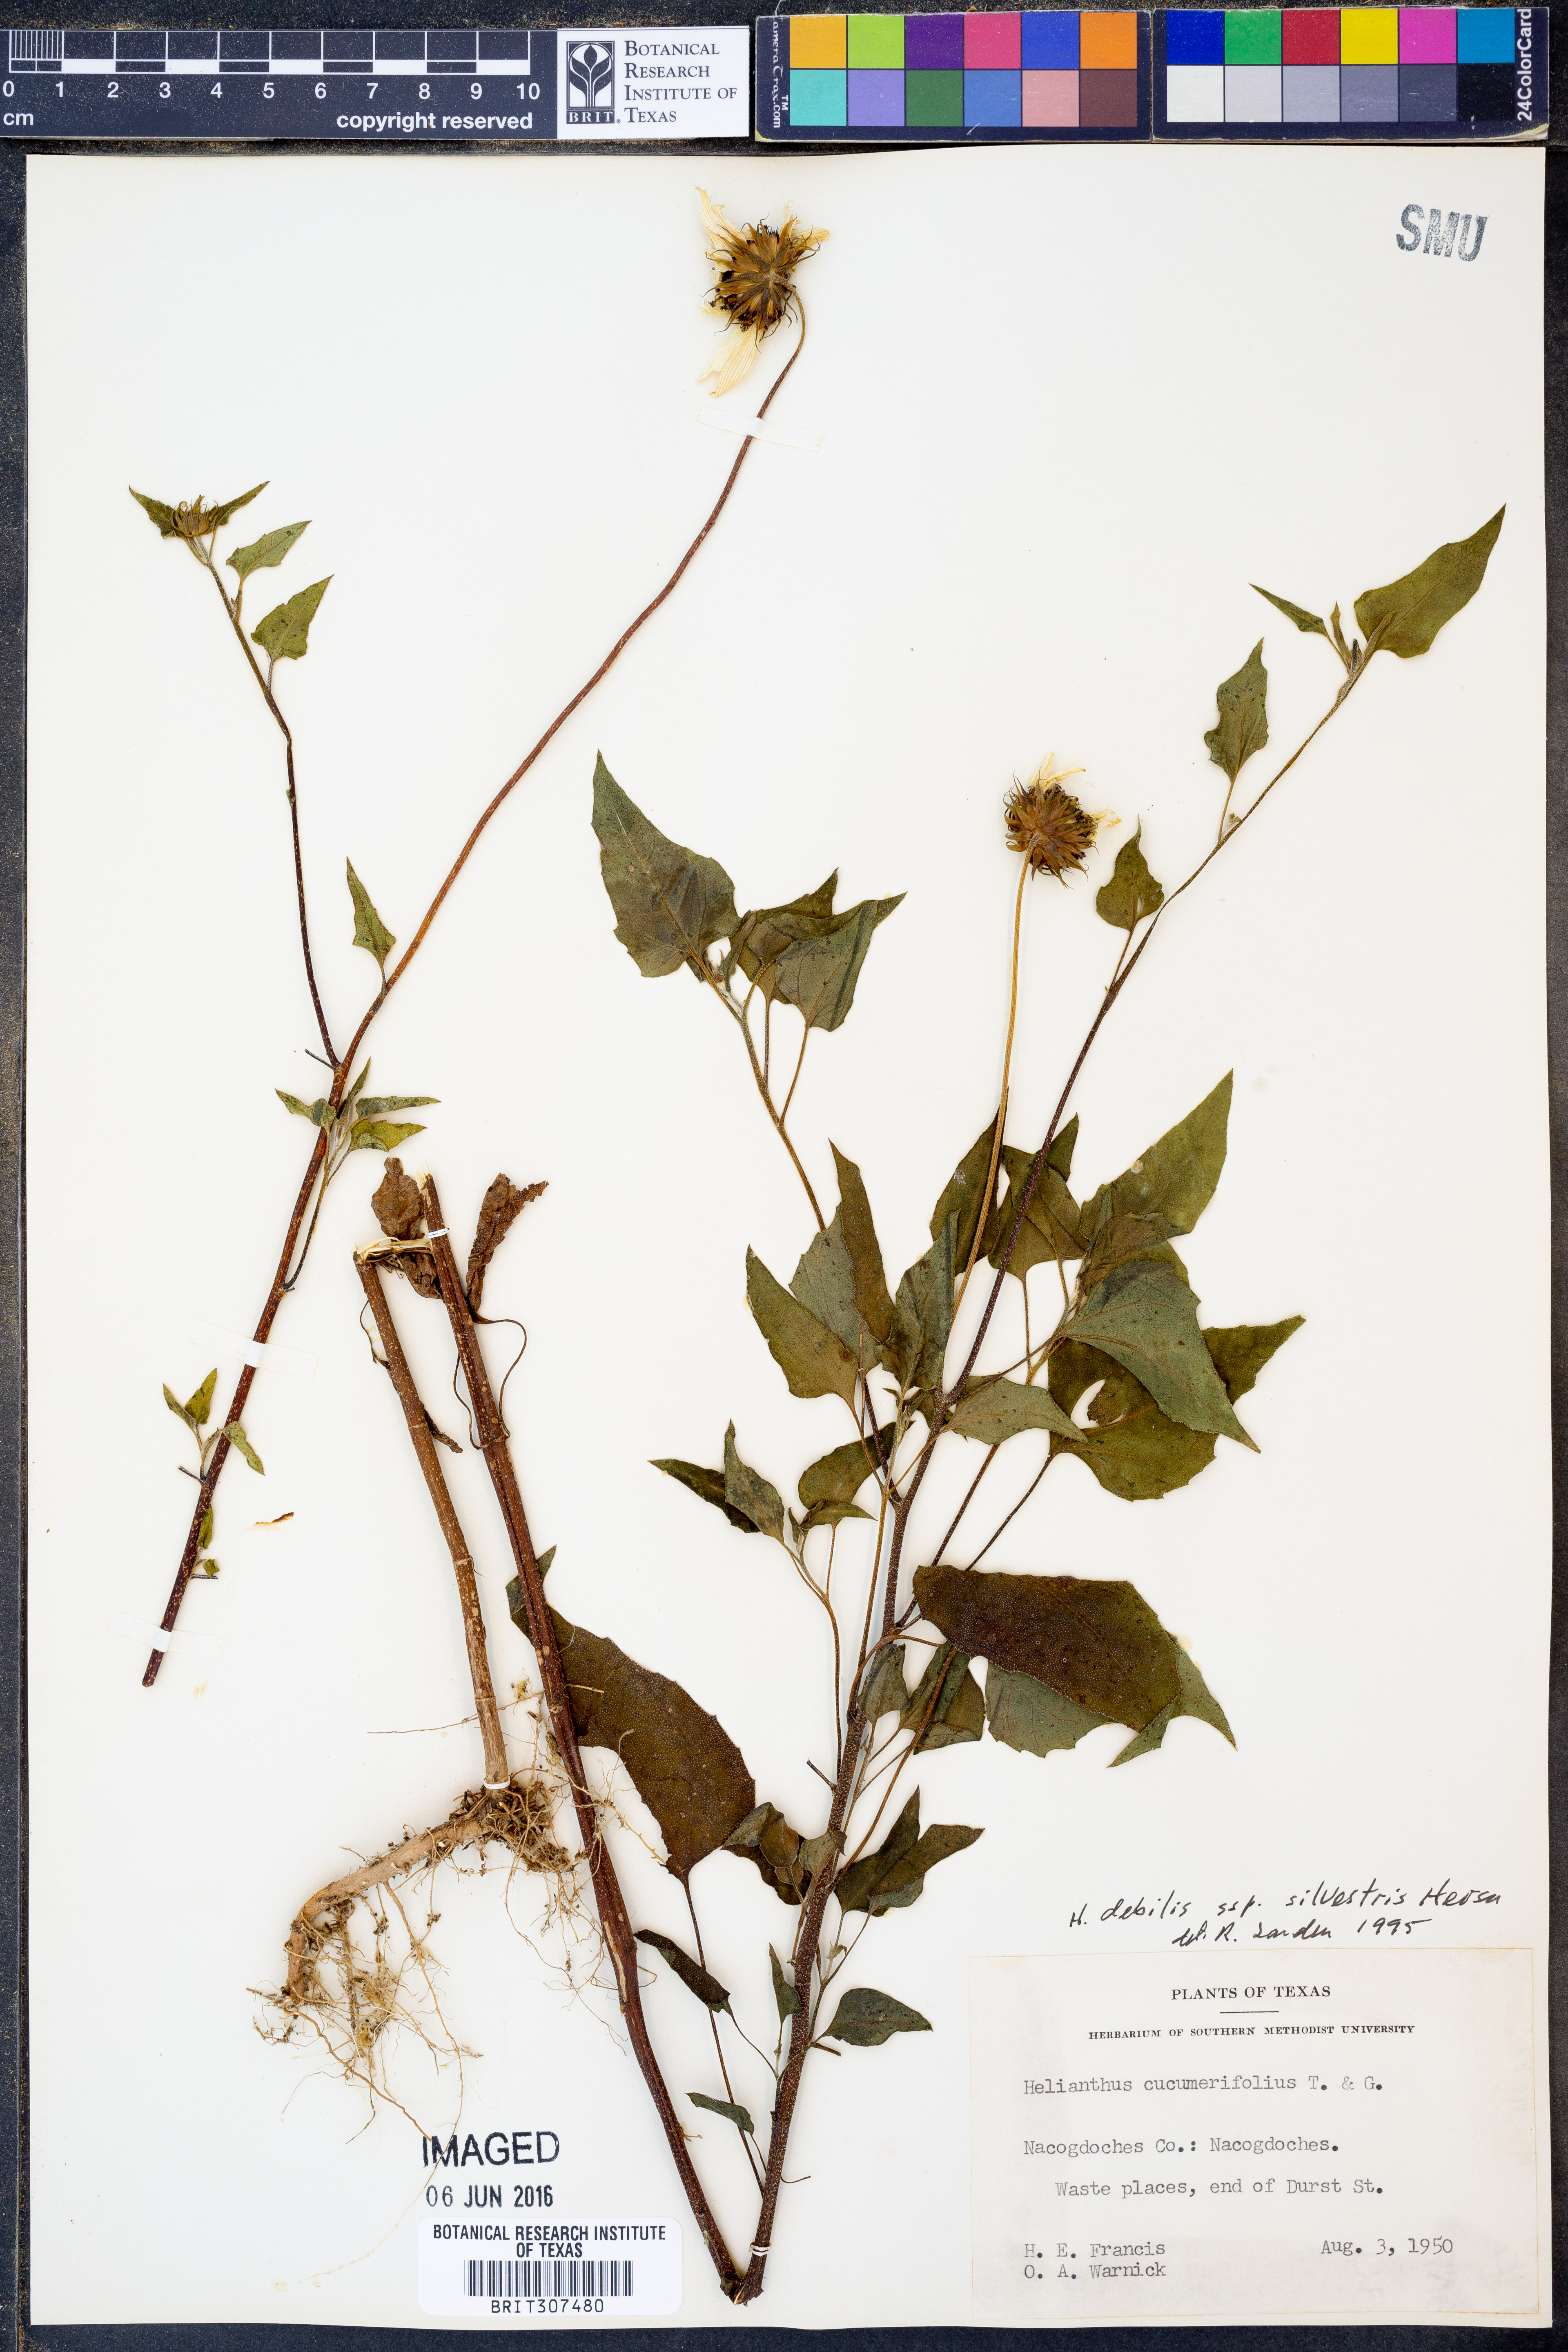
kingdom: Plantae
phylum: Tracheophyta
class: Magnoliopsida
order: Asterales
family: Asteraceae
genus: Helianthus
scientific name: Helianthus debilis
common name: Weak sunflower
